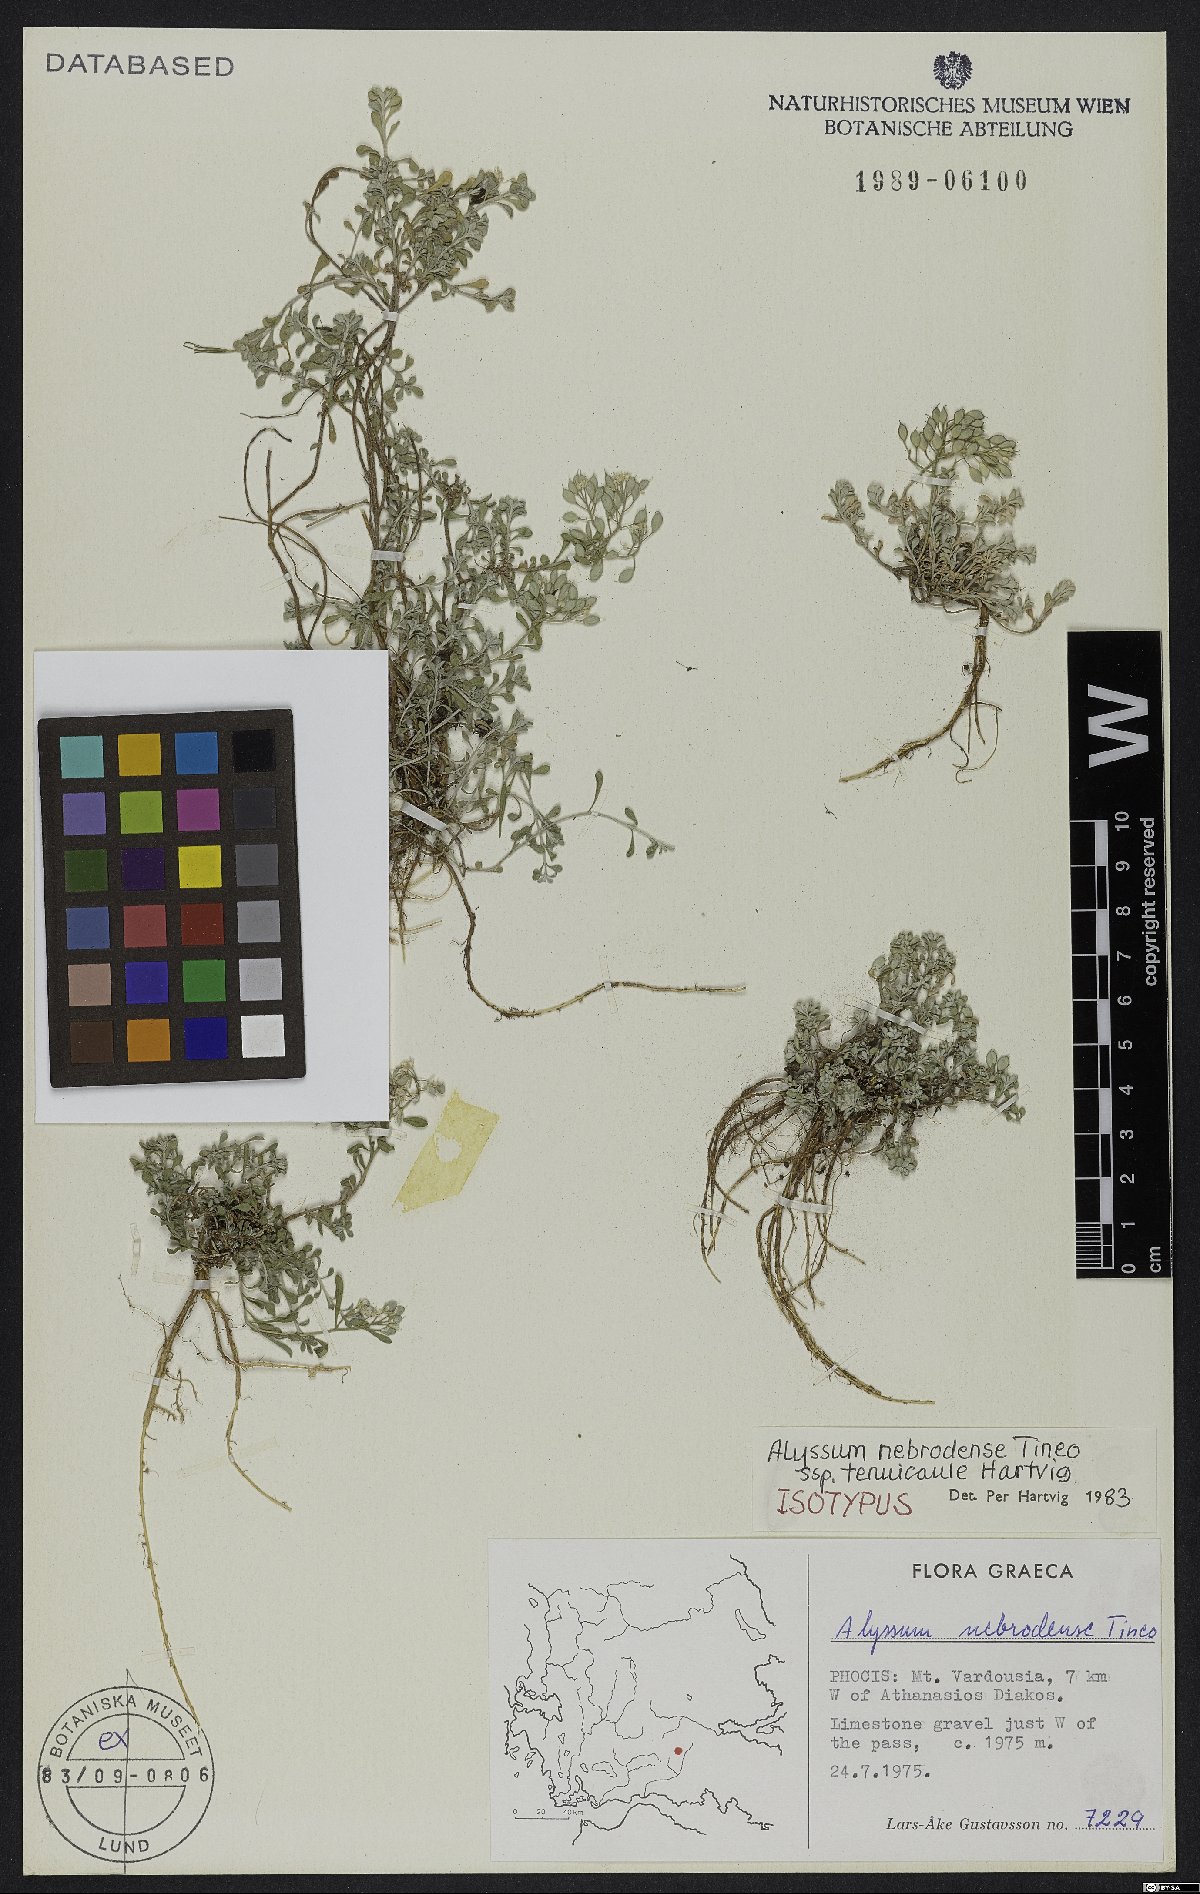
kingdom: Plantae
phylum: Tracheophyta
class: Magnoliopsida
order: Brassicales
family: Brassicaceae
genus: Odontarrhena
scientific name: Odontarrhena nebrodensis
